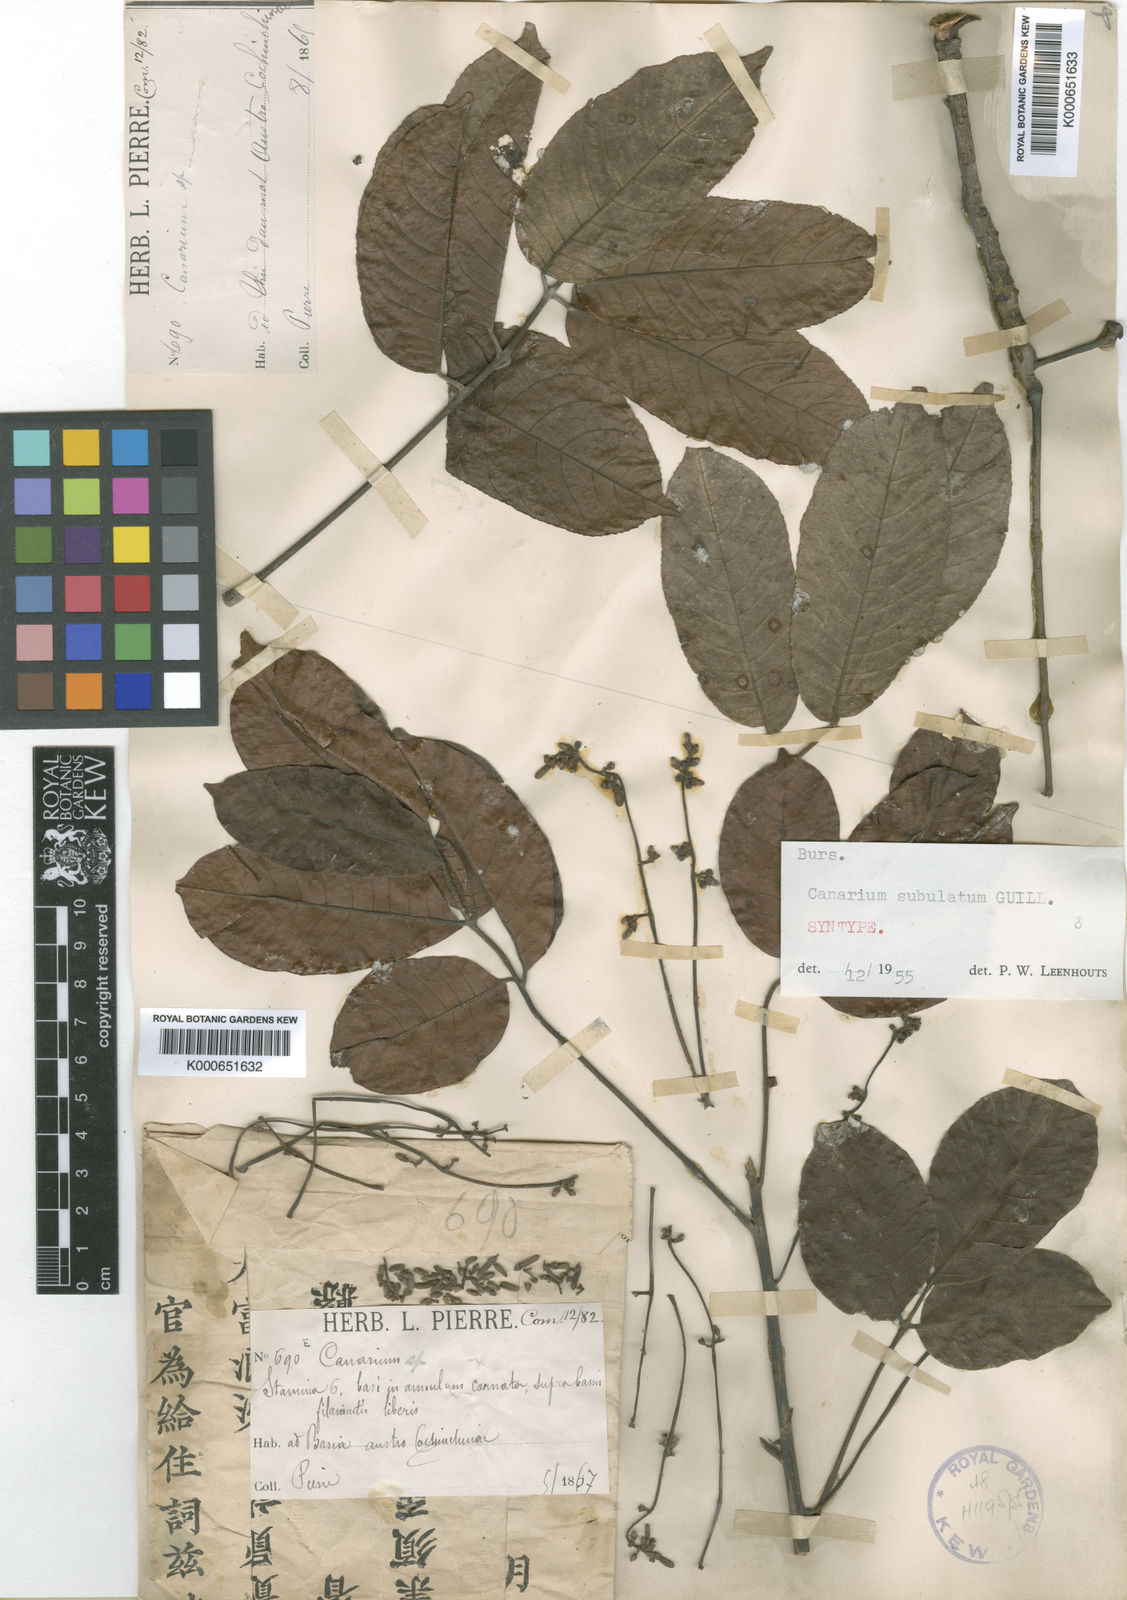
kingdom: Plantae
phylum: Tracheophyta
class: Magnoliopsida
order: Sapindales
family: Burseraceae
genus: Canarium
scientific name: Canarium subulatum
